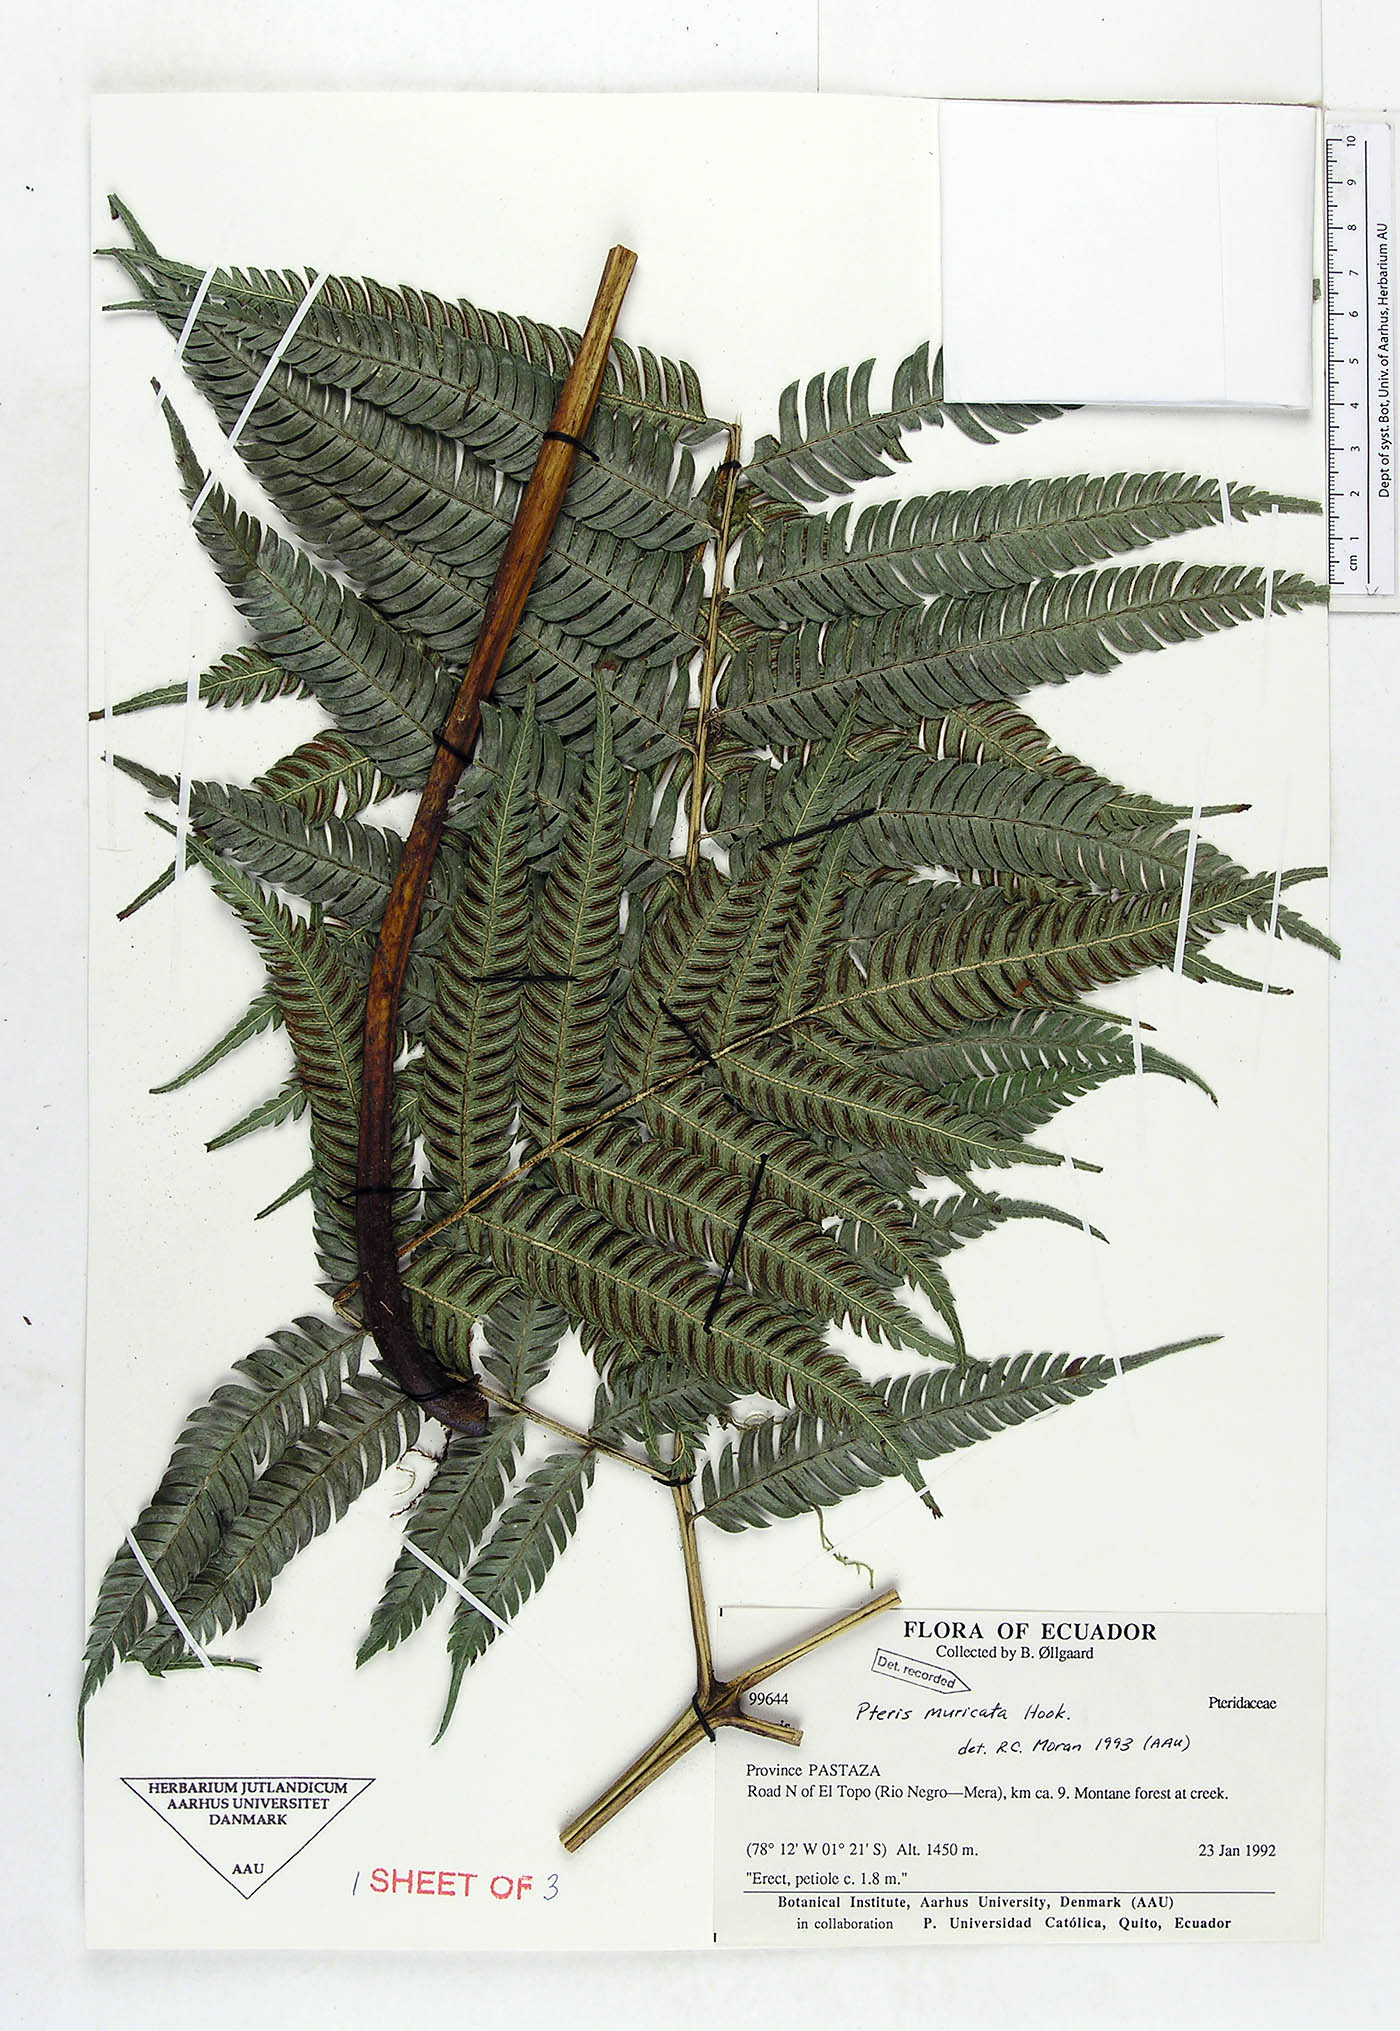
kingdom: Plantae
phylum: Tracheophyta
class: Polypodiopsida
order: Polypodiales
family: Pteridaceae
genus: Pteris
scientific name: Pteris muricata
